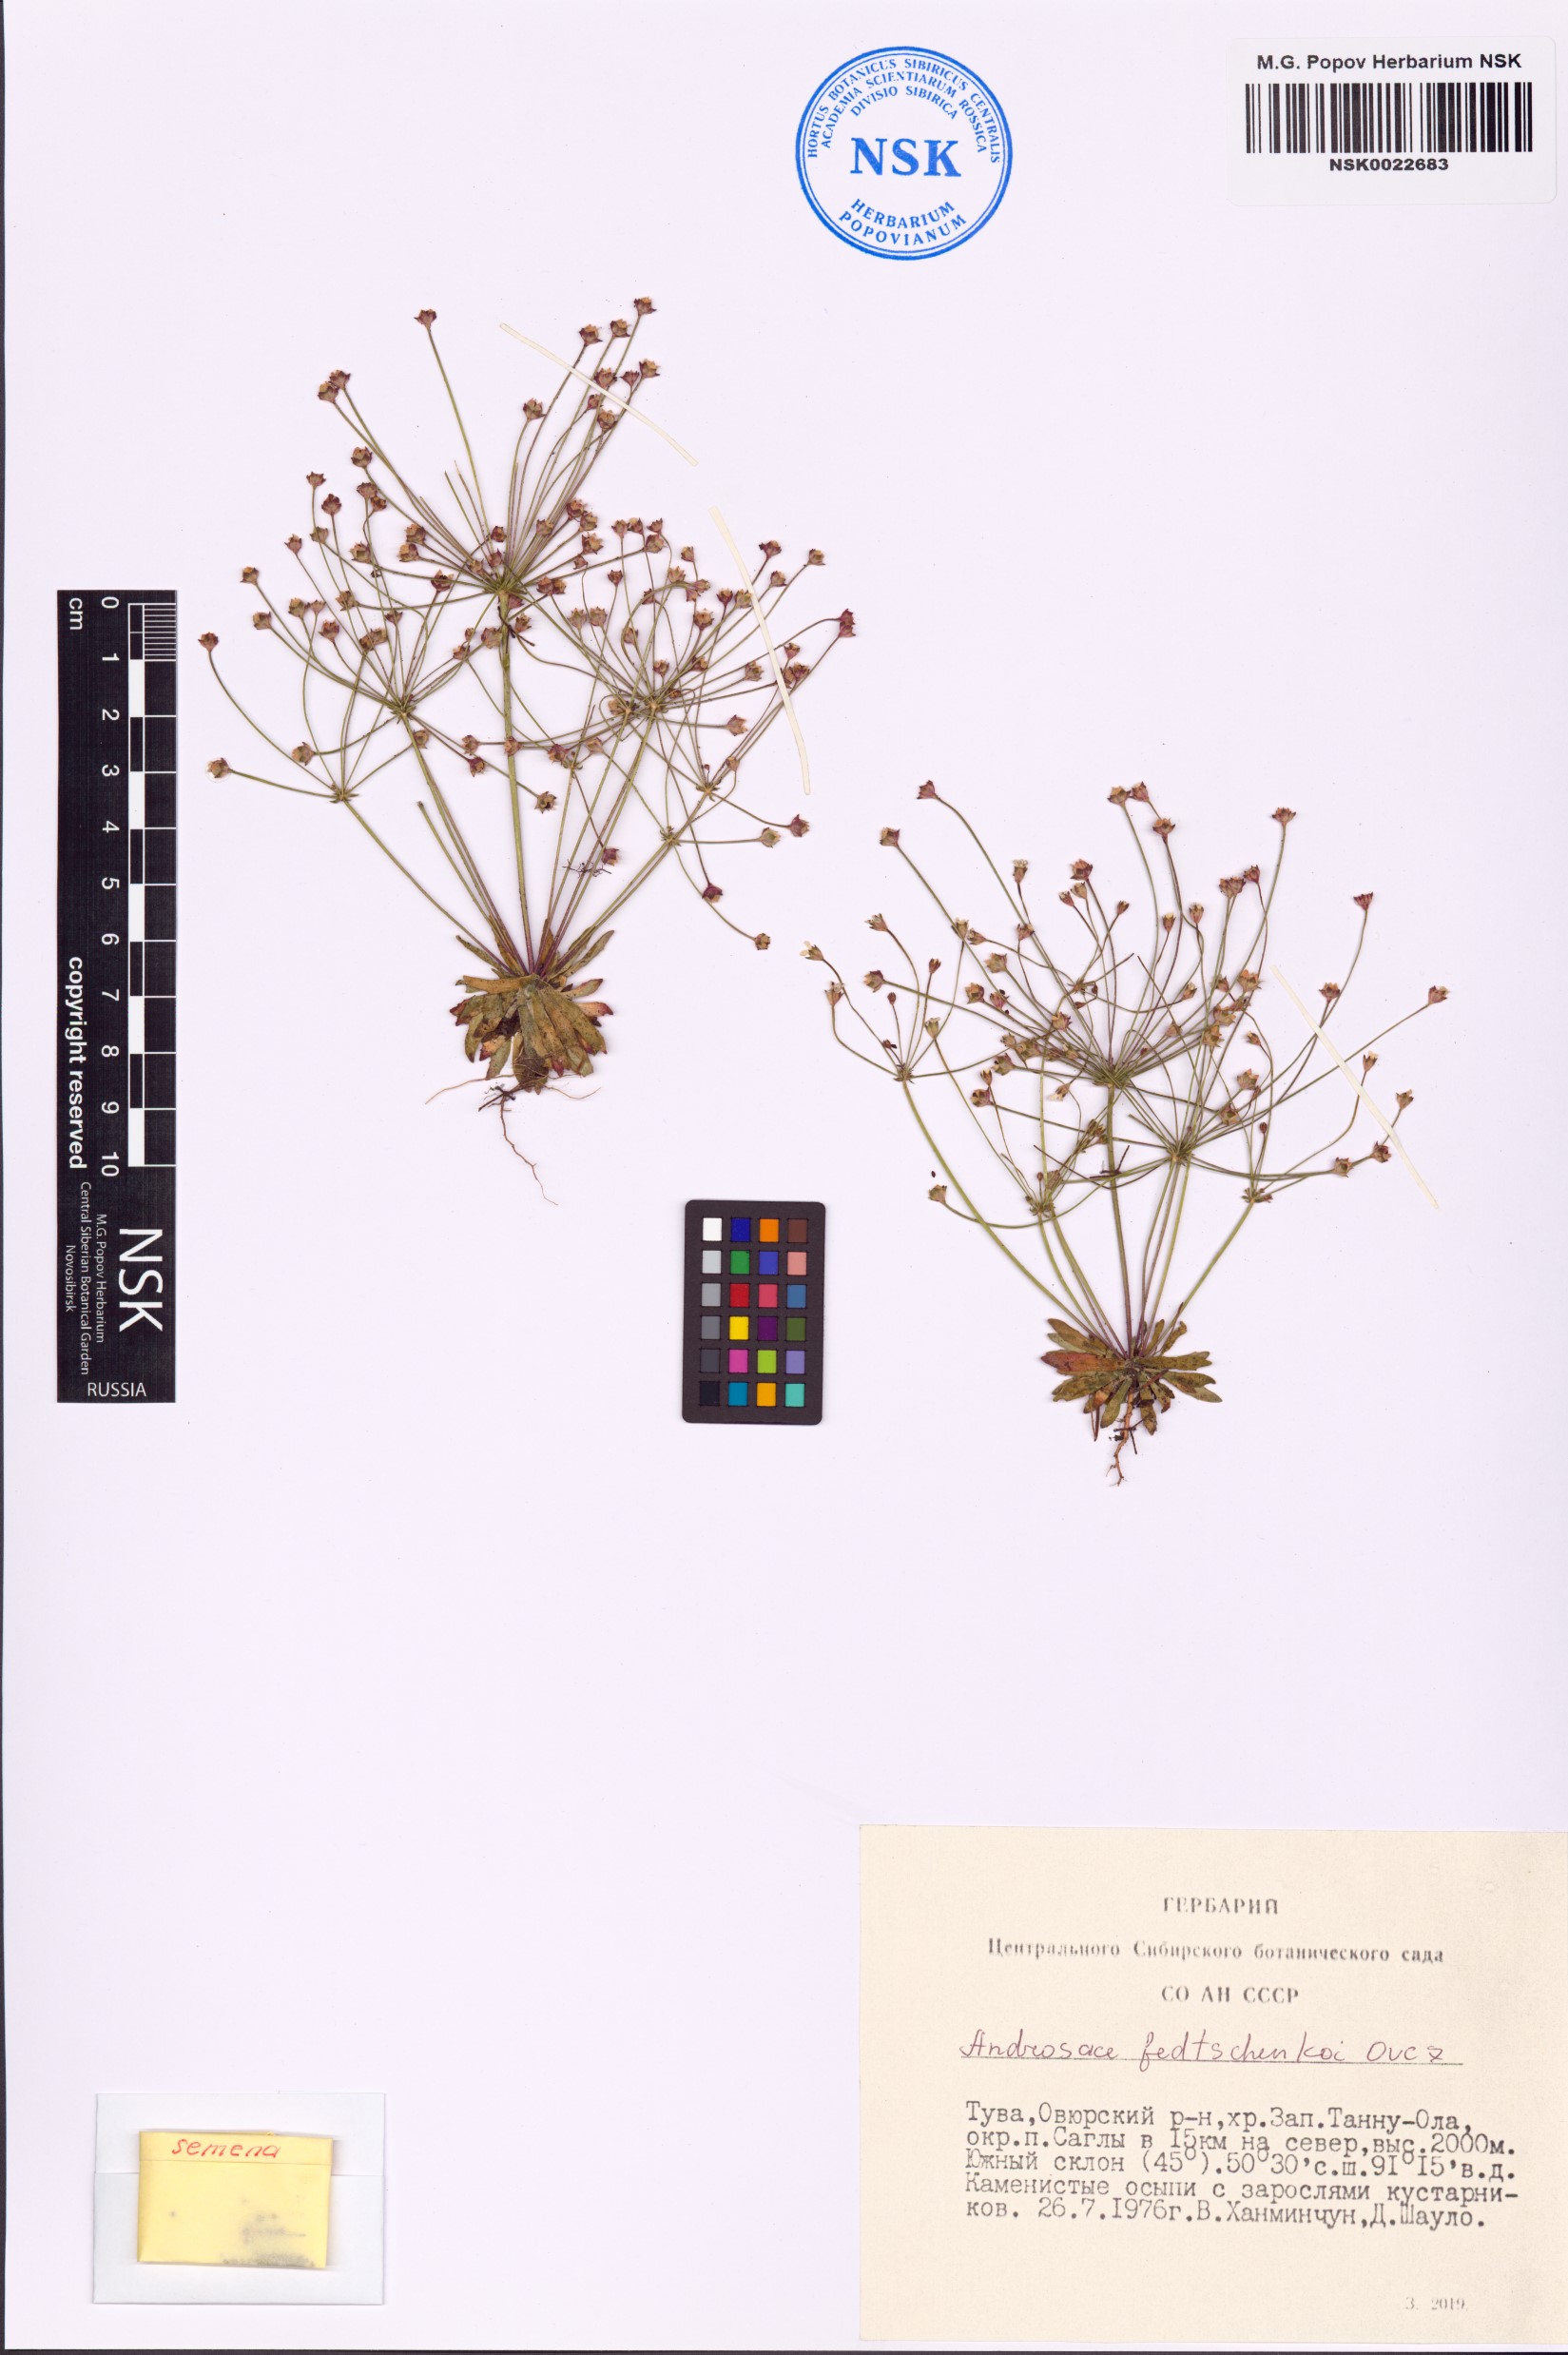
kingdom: Plantae
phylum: Tracheophyta
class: Magnoliopsida
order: Ericales
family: Primulaceae
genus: Androsace
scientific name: Androsace fedtschenkoi
